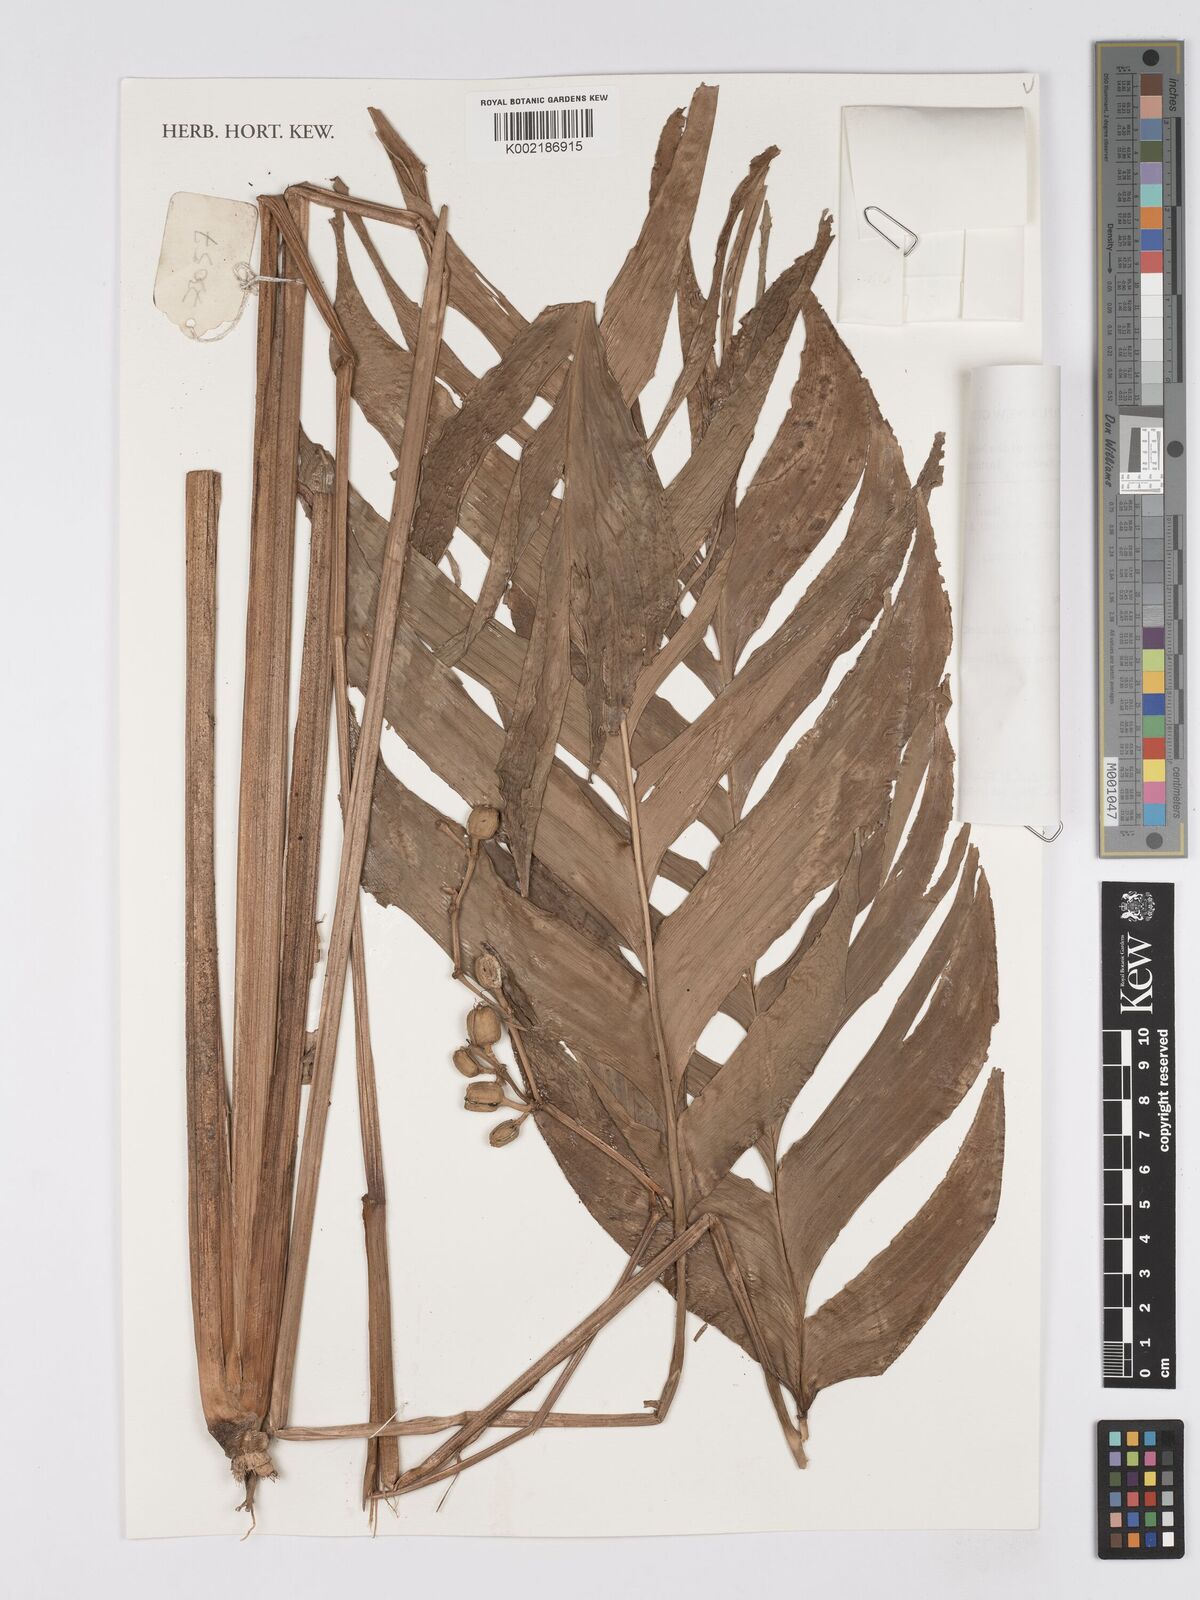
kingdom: Plantae
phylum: Tracheophyta
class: Liliopsida
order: Zingiberales
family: Marantaceae
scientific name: Marantaceae
